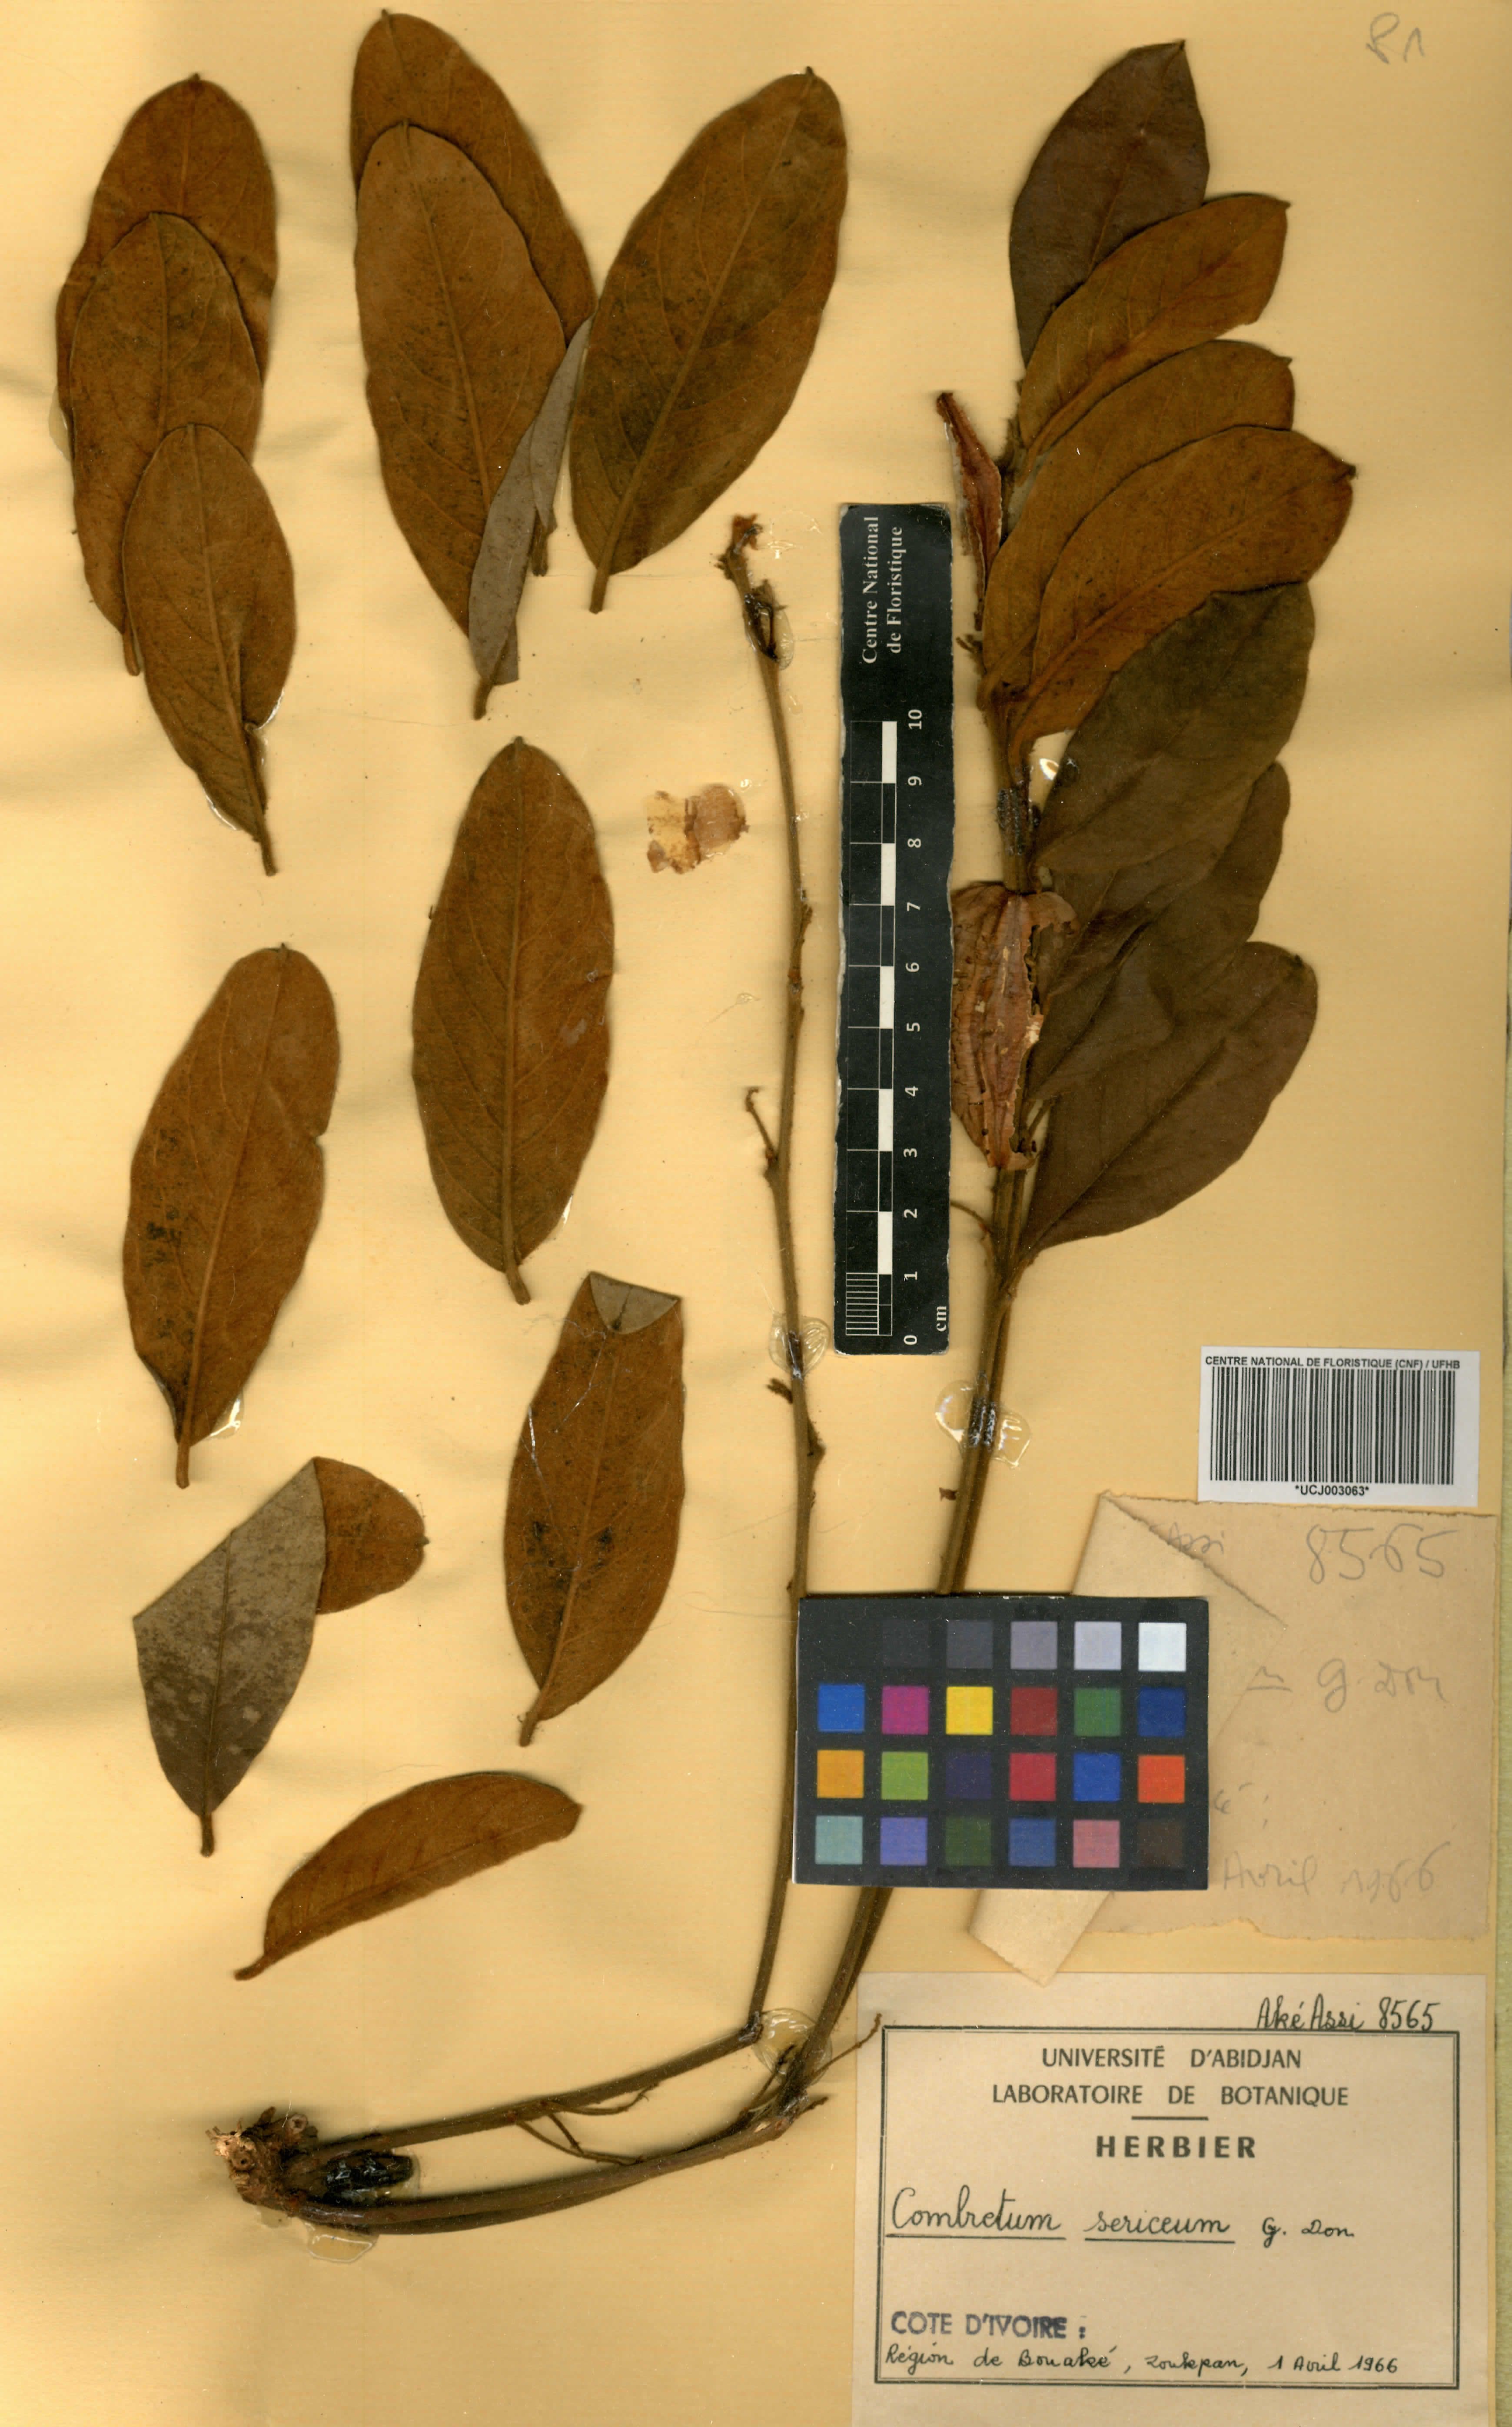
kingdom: Plantae
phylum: Tracheophyta
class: Magnoliopsida
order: Myrtales
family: Combretaceae
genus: Combretum
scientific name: Combretum sericeum
